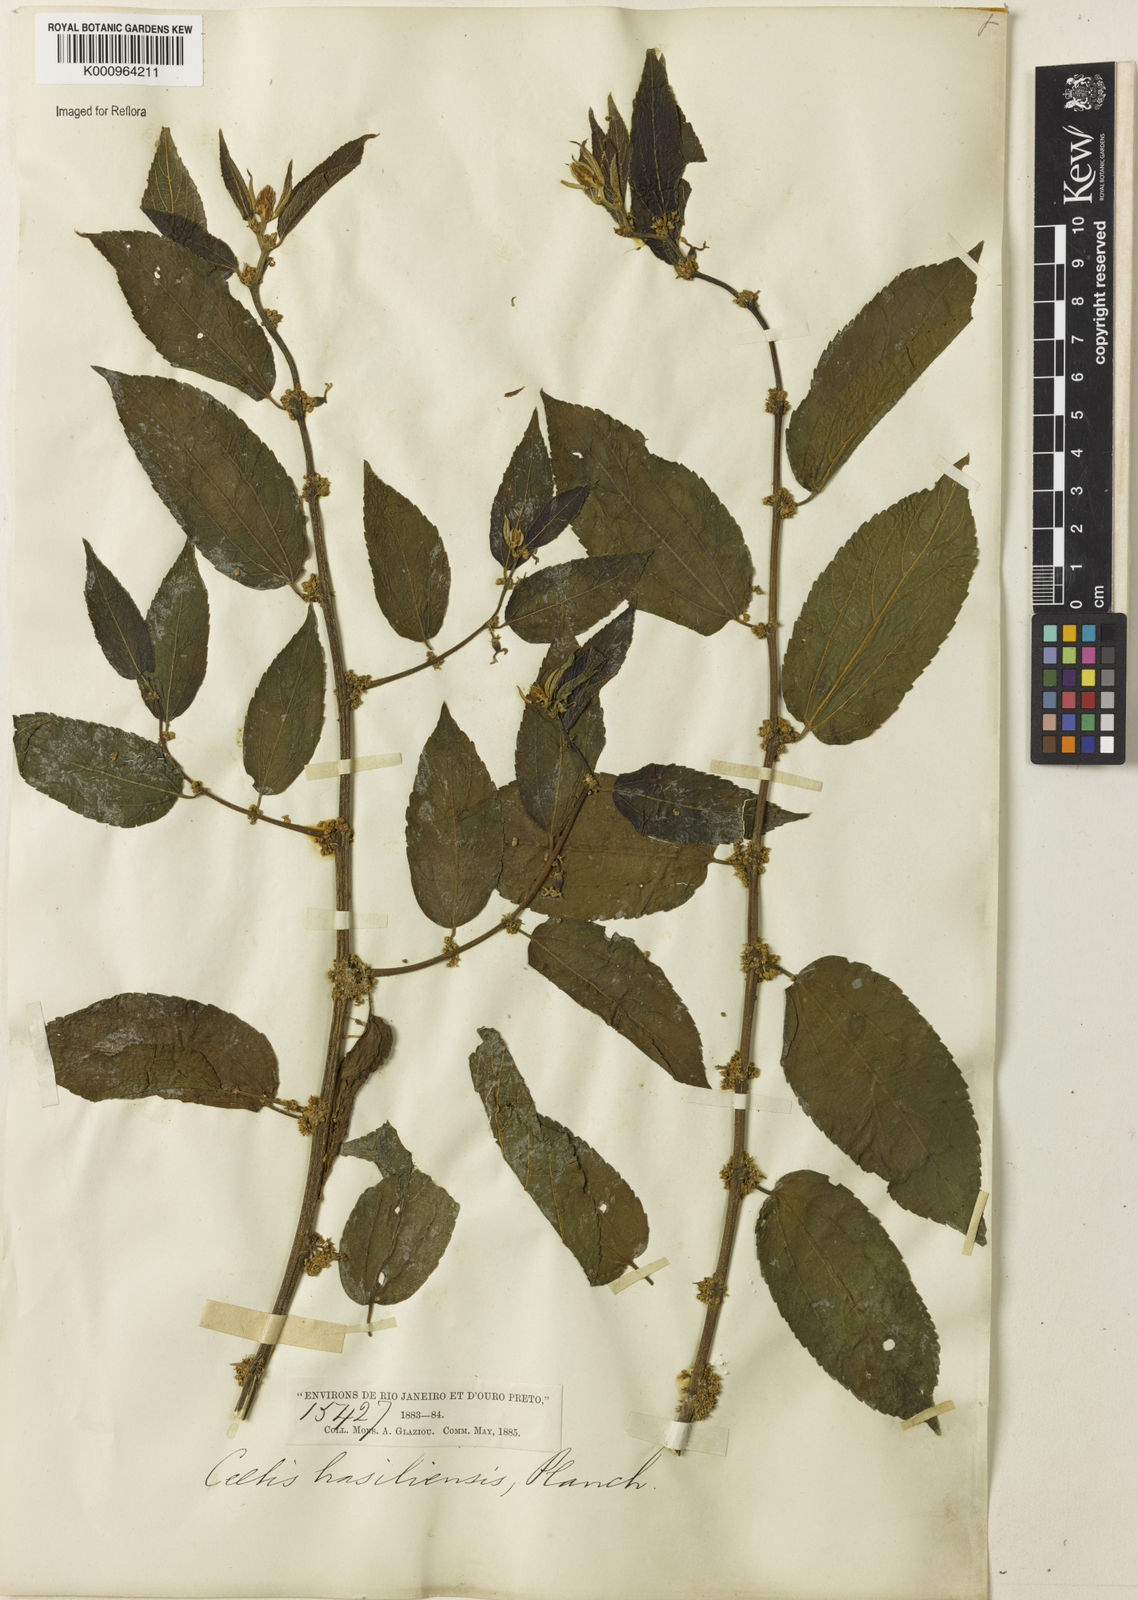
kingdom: Plantae
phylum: Tracheophyta
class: Magnoliopsida
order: Rosales
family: Cannabaceae
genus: Celtis
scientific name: Celtis brasiliensis
